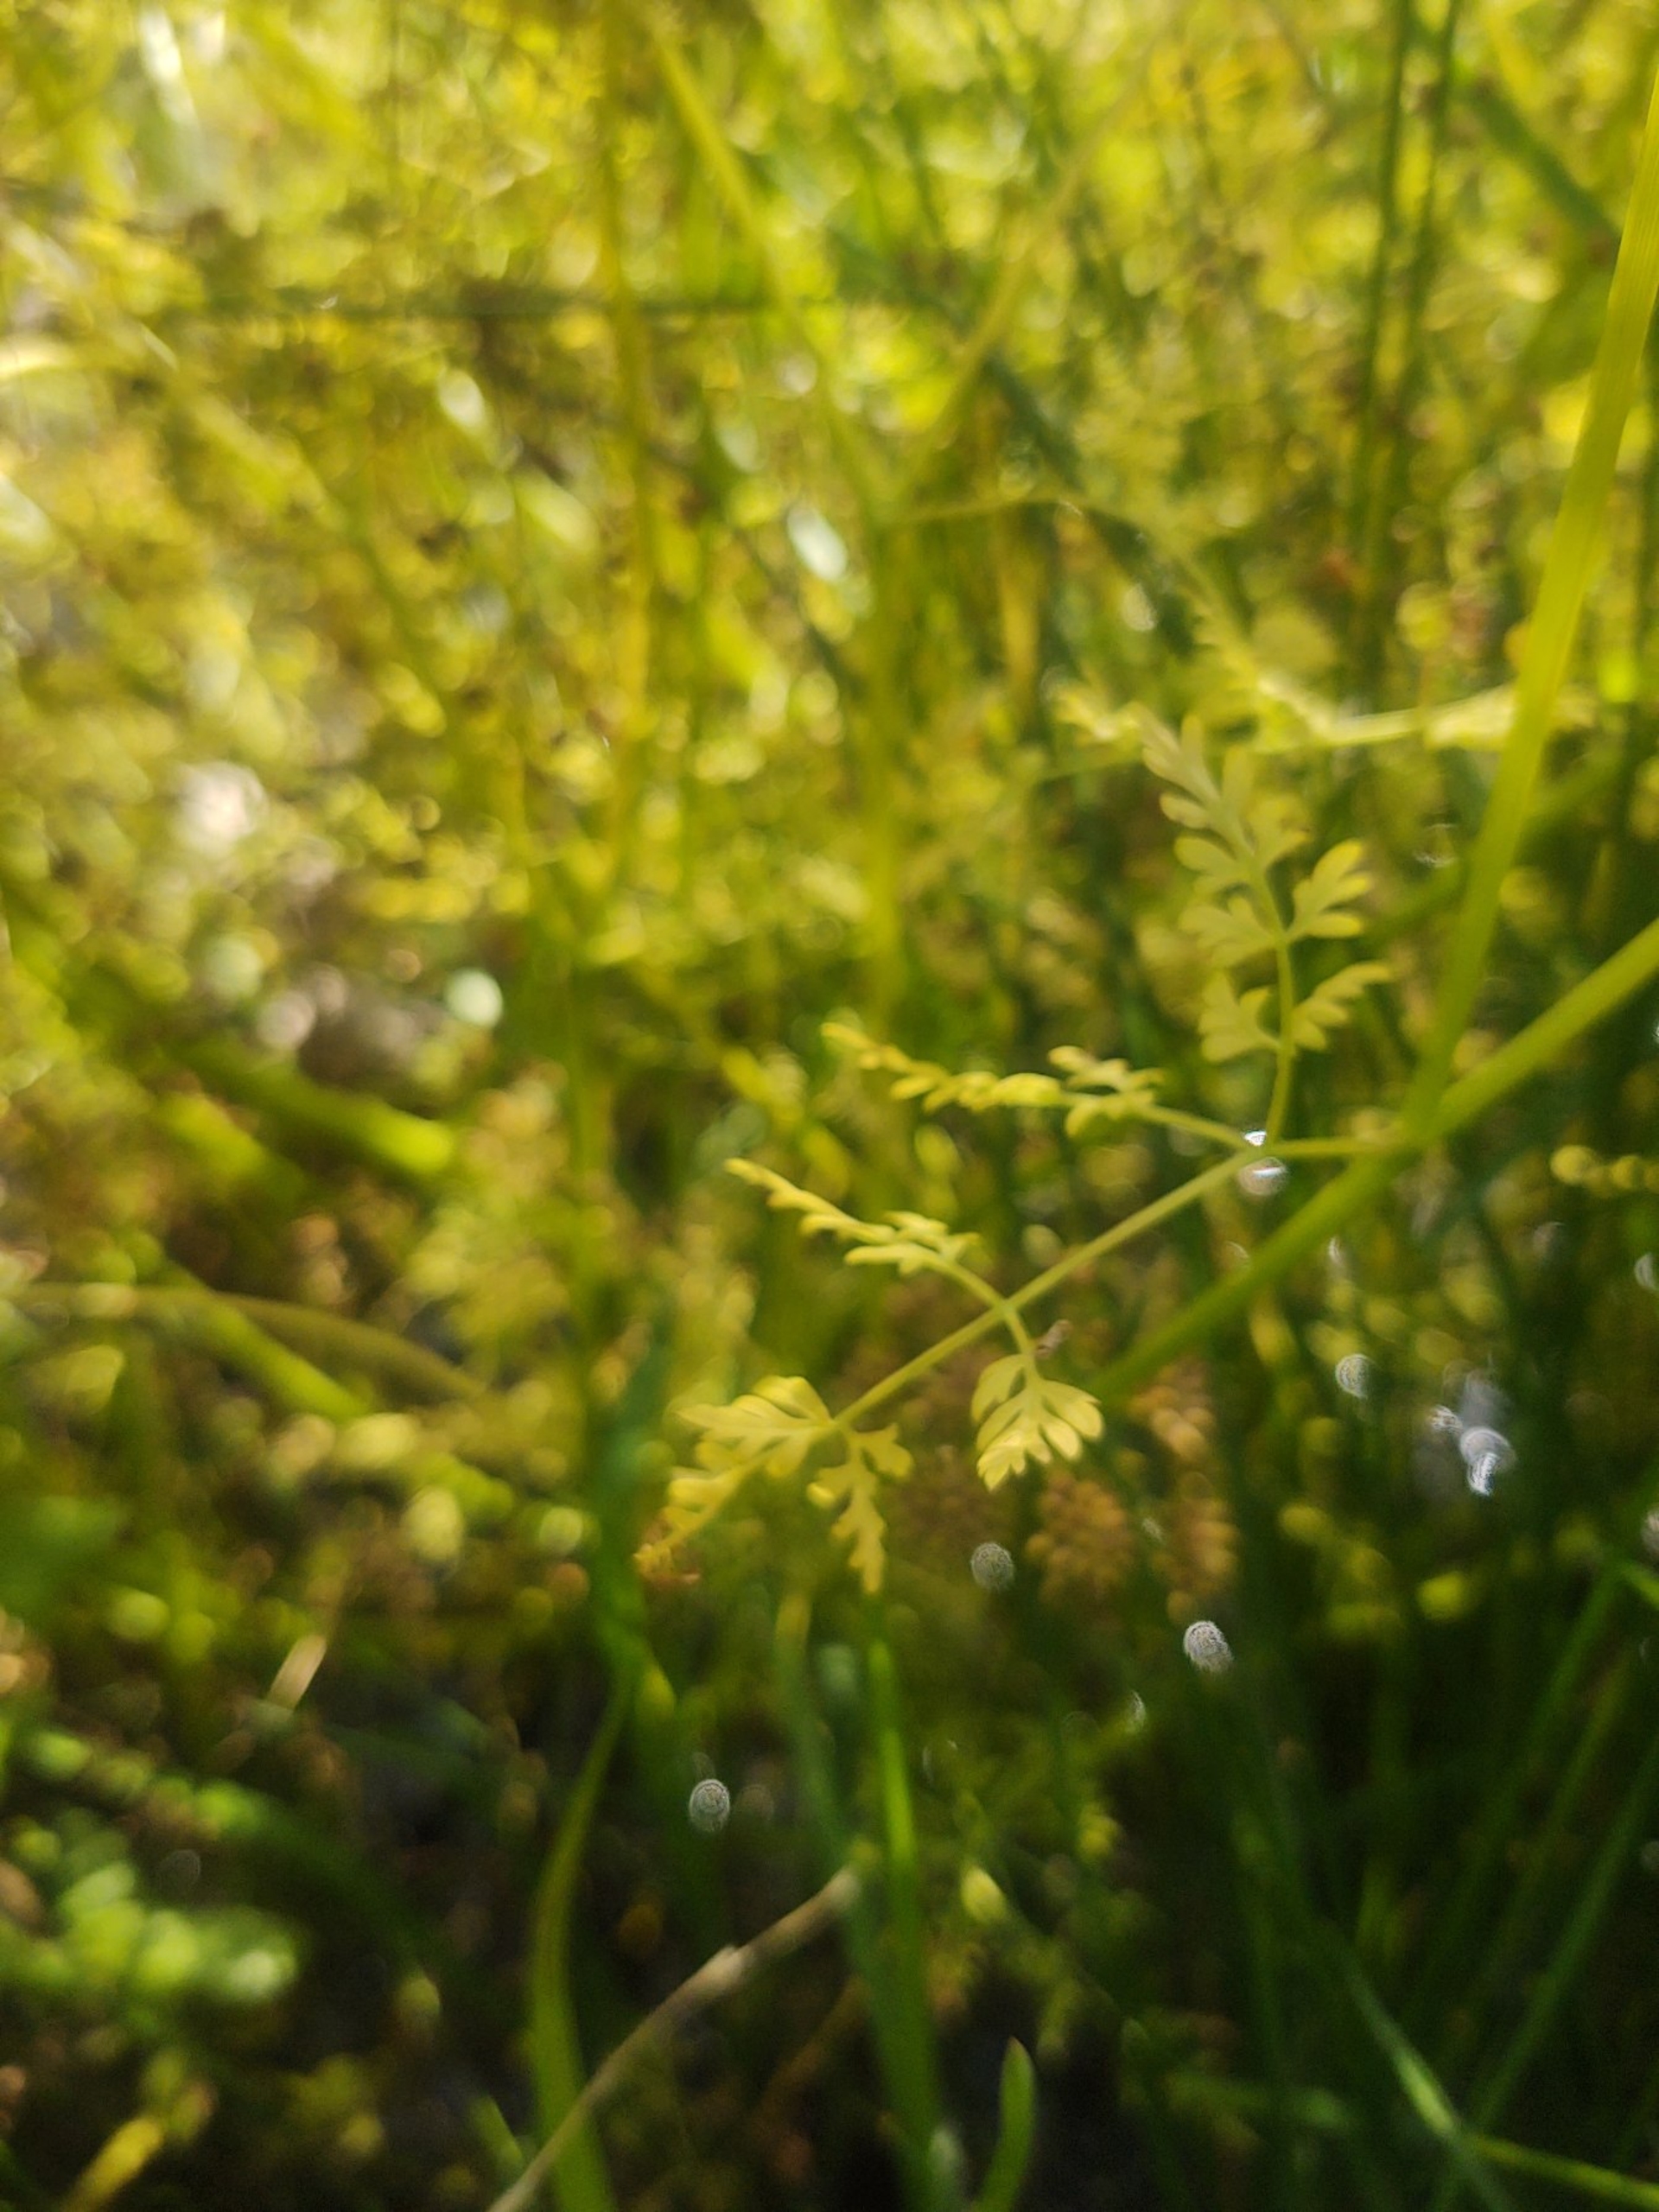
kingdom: Plantae
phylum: Tracheophyta
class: Magnoliopsida
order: Apiales
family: Apiaceae
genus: Oenanthe
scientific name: Oenanthe aquatica
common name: Billebo-klaseskærm
